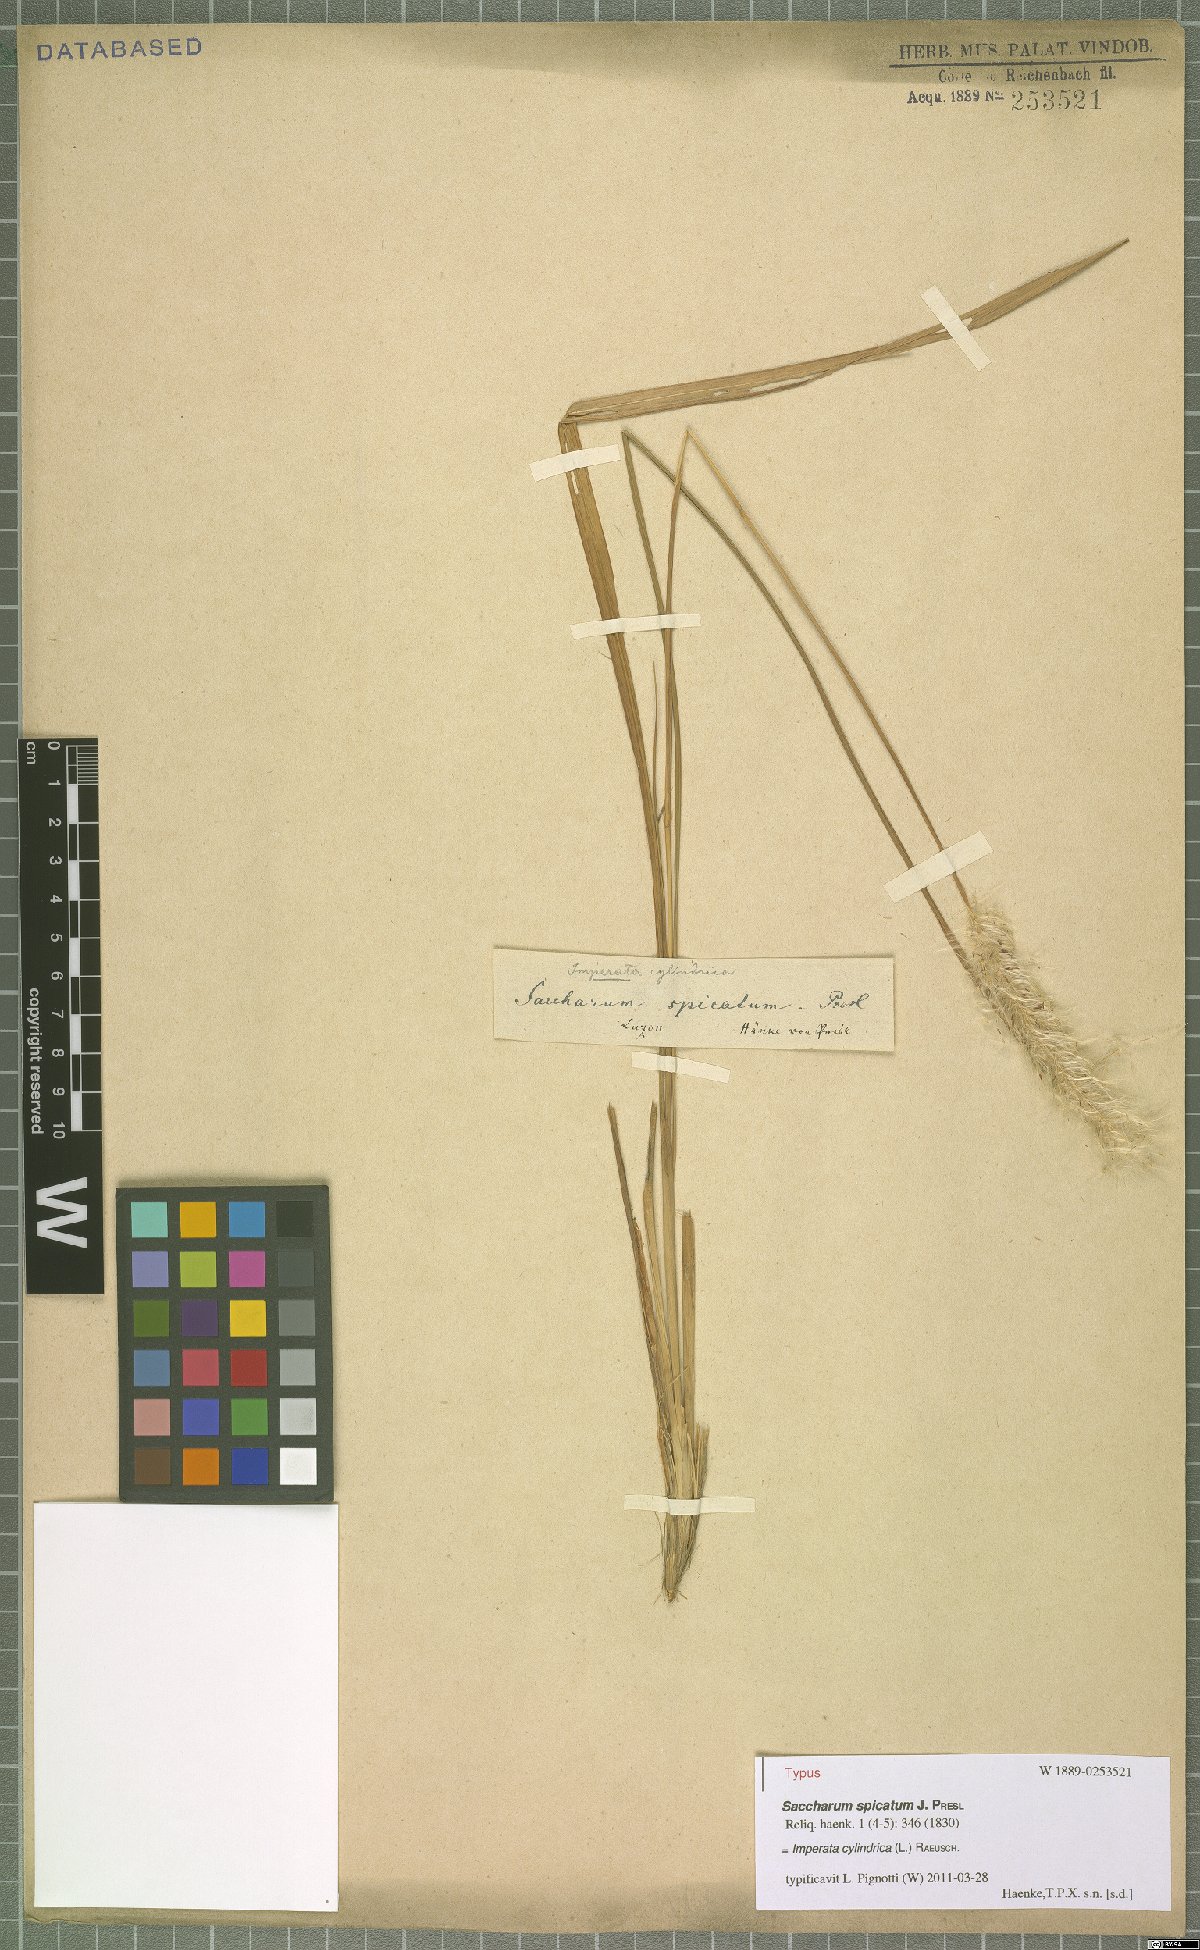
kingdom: Plantae
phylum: Tracheophyta
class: Liliopsida
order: Poales
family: Poaceae
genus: Imperata
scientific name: Imperata cylindrica
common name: Cogongrass
